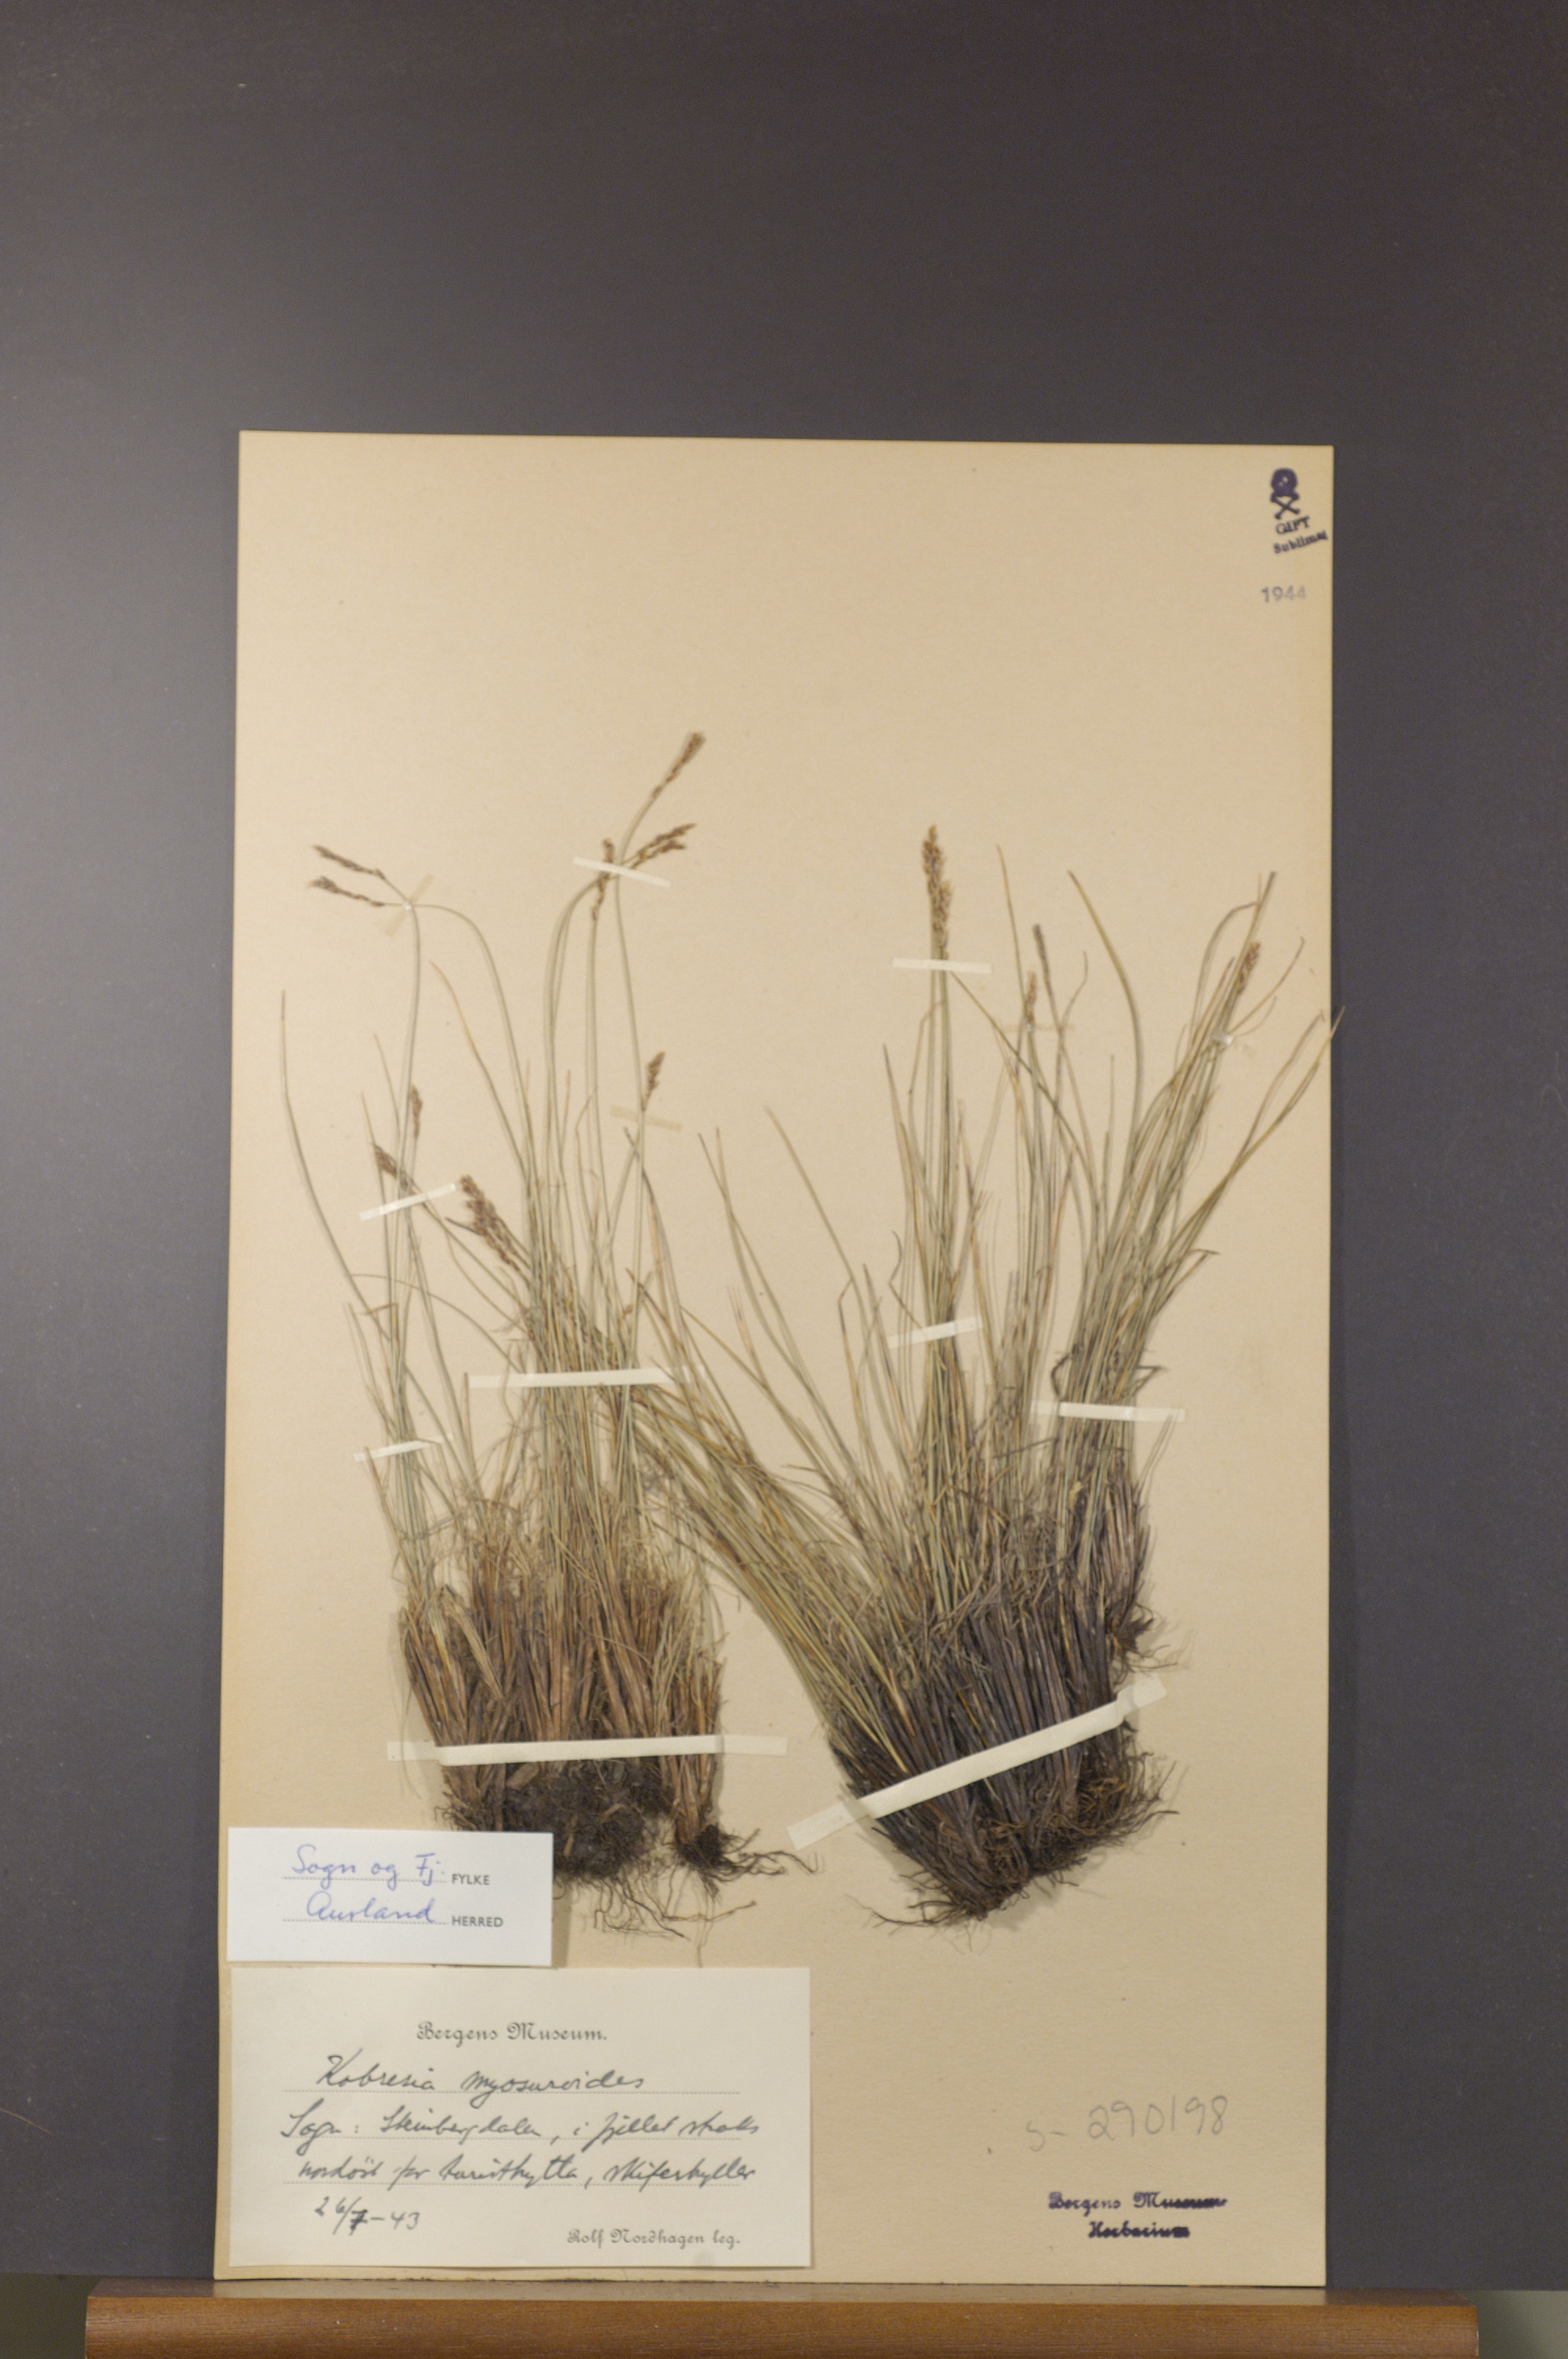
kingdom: Plantae
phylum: Tracheophyta
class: Liliopsida
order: Poales
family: Cyperaceae
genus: Carex
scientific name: Carex myosuroides
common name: Bellard's bog sedge
